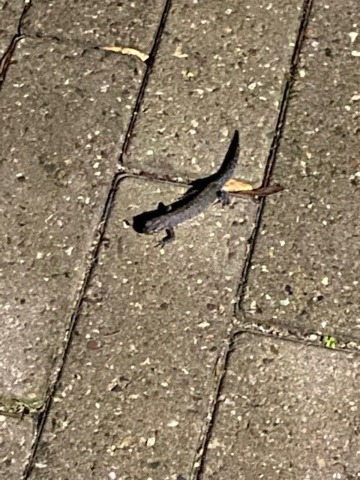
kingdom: Animalia
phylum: Chordata
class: Amphibia
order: Caudata
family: Salamandridae
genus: Triturus
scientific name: Triturus cristatus
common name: Stor vandsalamander
